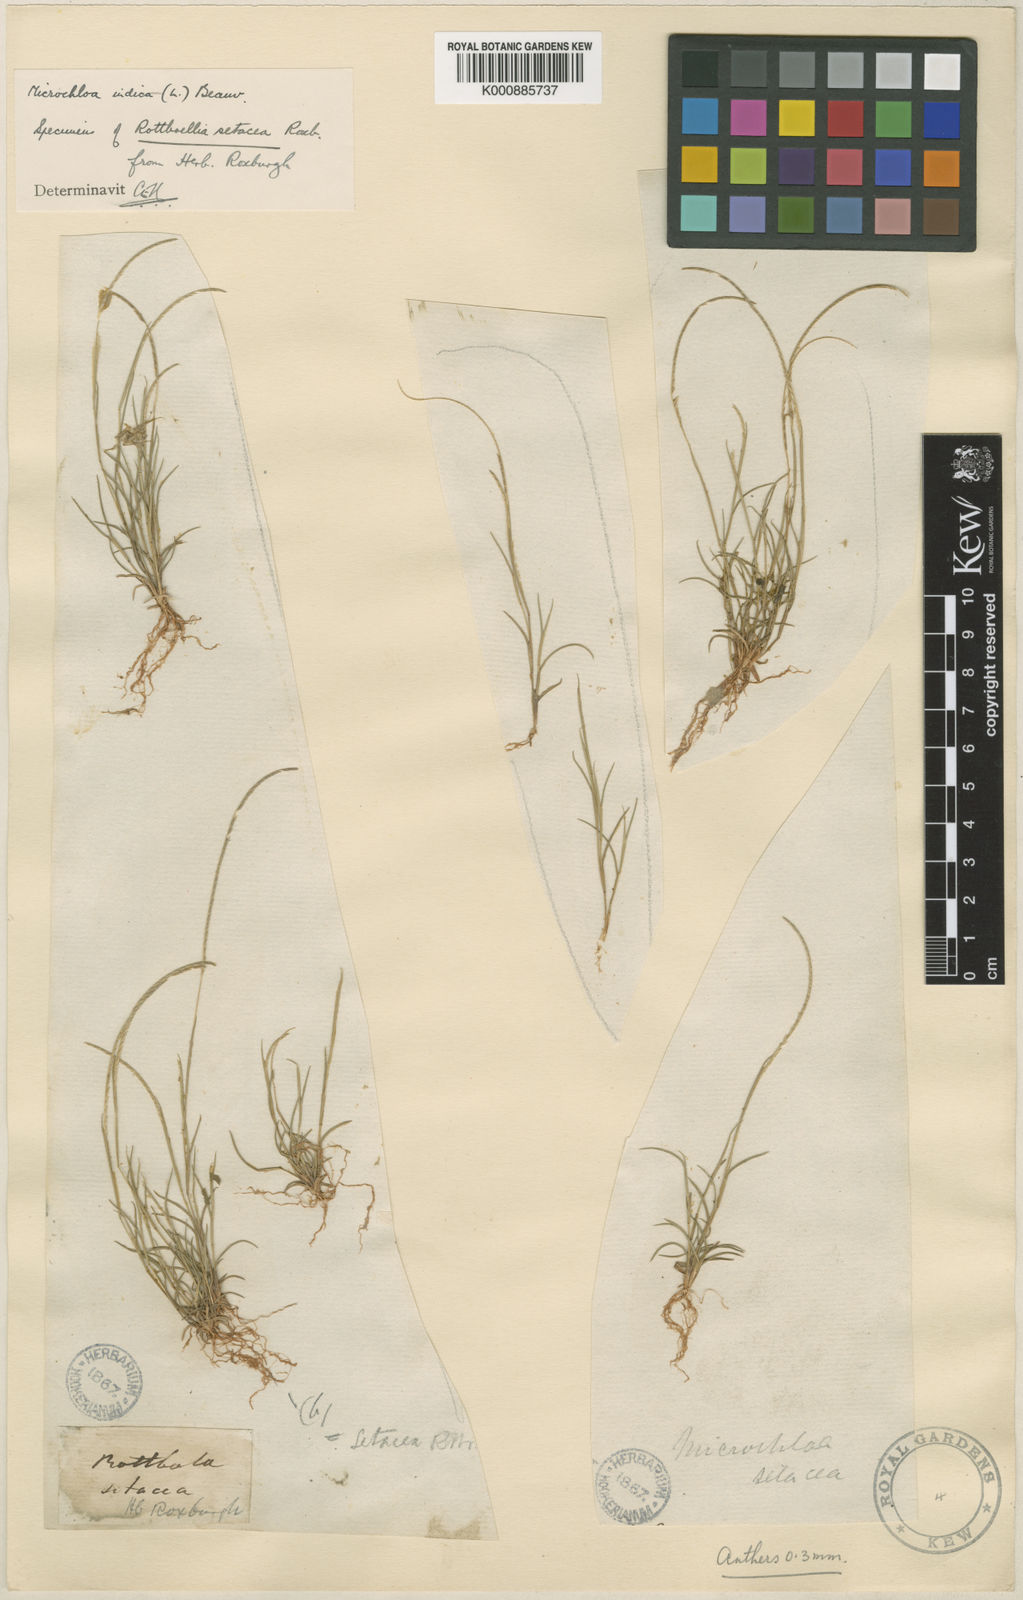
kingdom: Plantae
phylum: Tracheophyta
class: Liliopsida
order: Poales
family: Poaceae
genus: Microchloa
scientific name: Microchloa indica
